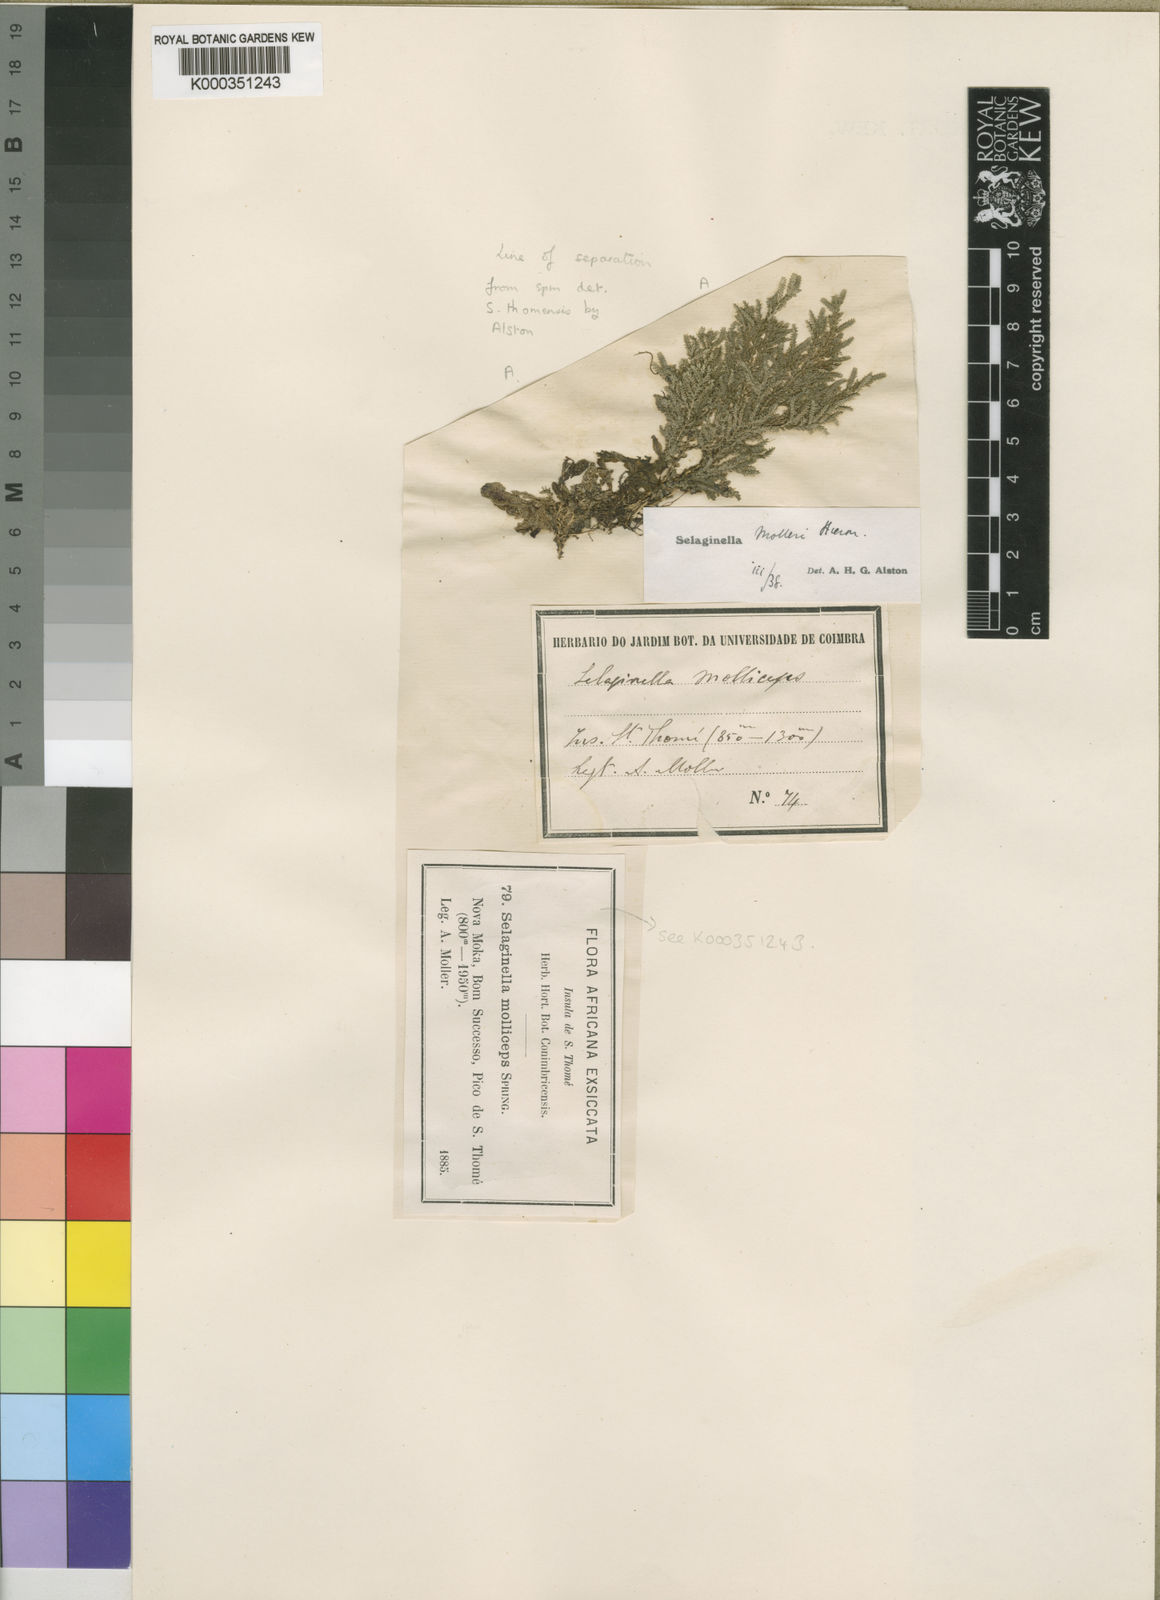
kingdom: Plantae
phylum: Tracheophyta
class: Lycopodiopsida
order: Selaginellales
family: Selaginellaceae
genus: Selaginella
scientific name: Selaginella molleri
